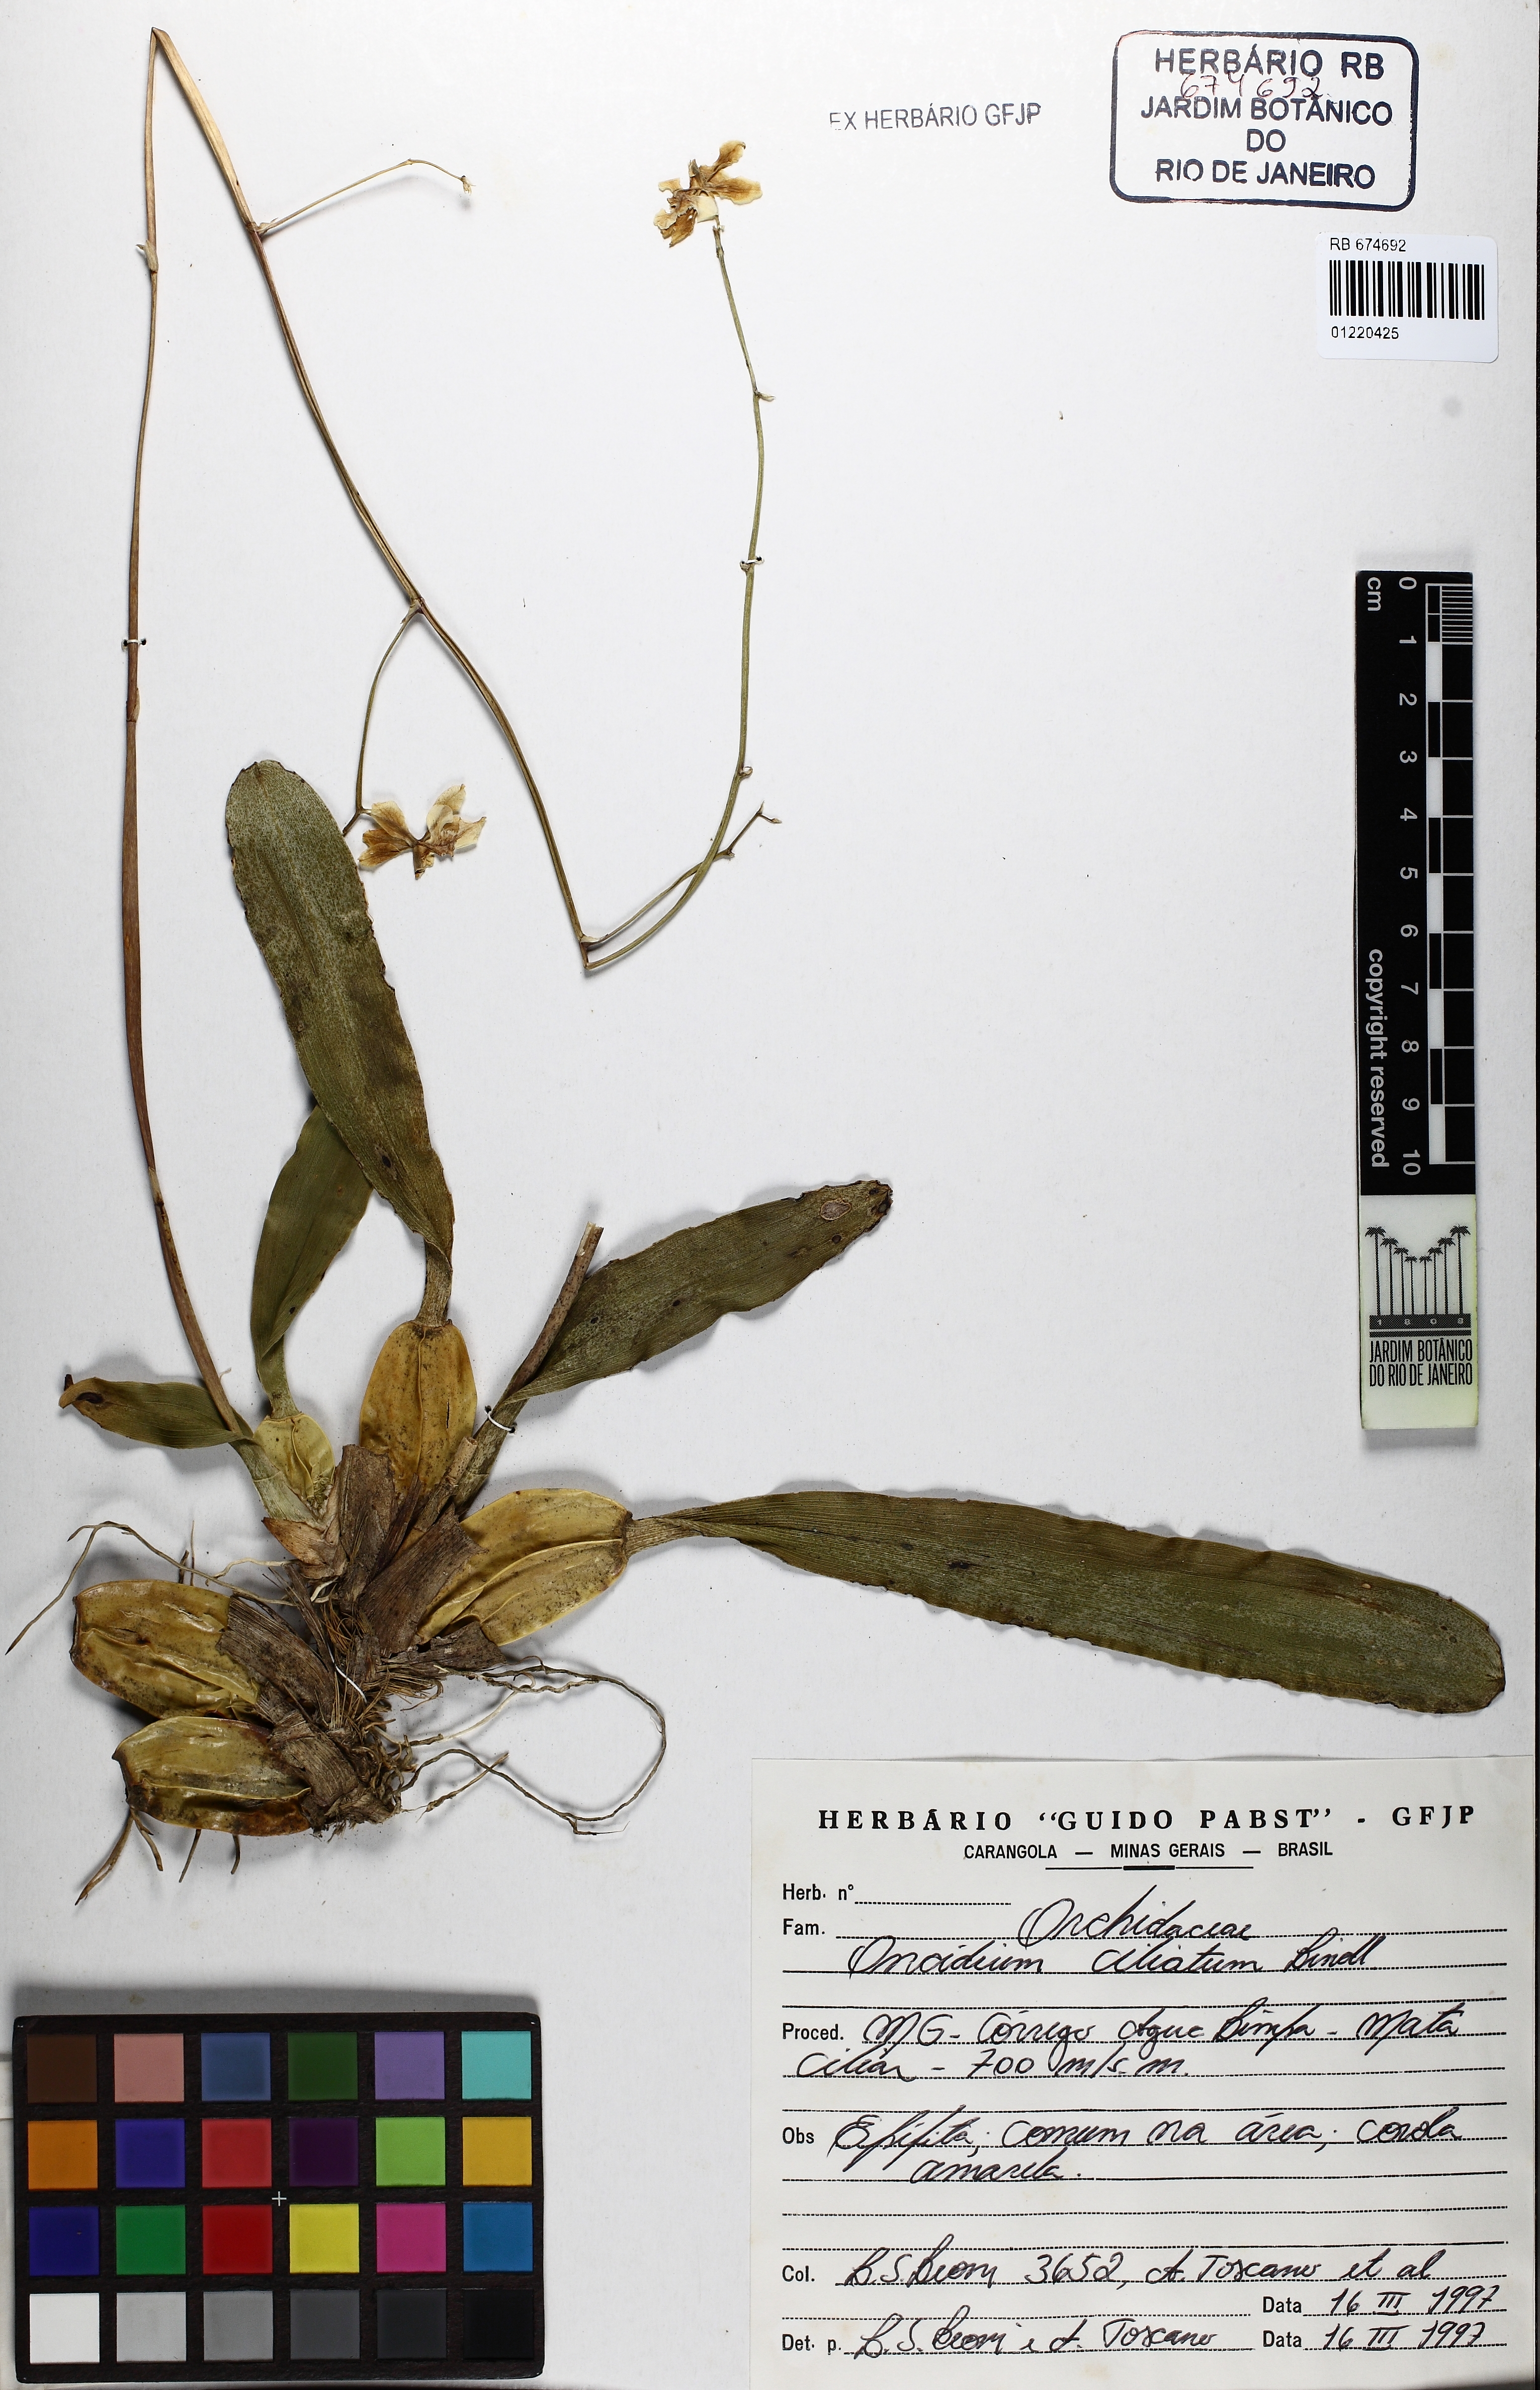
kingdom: Plantae
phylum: Tracheophyta
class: Liliopsida
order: Asparagales
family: Orchidaceae
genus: Gomesa
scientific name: Gomesa ciliata
